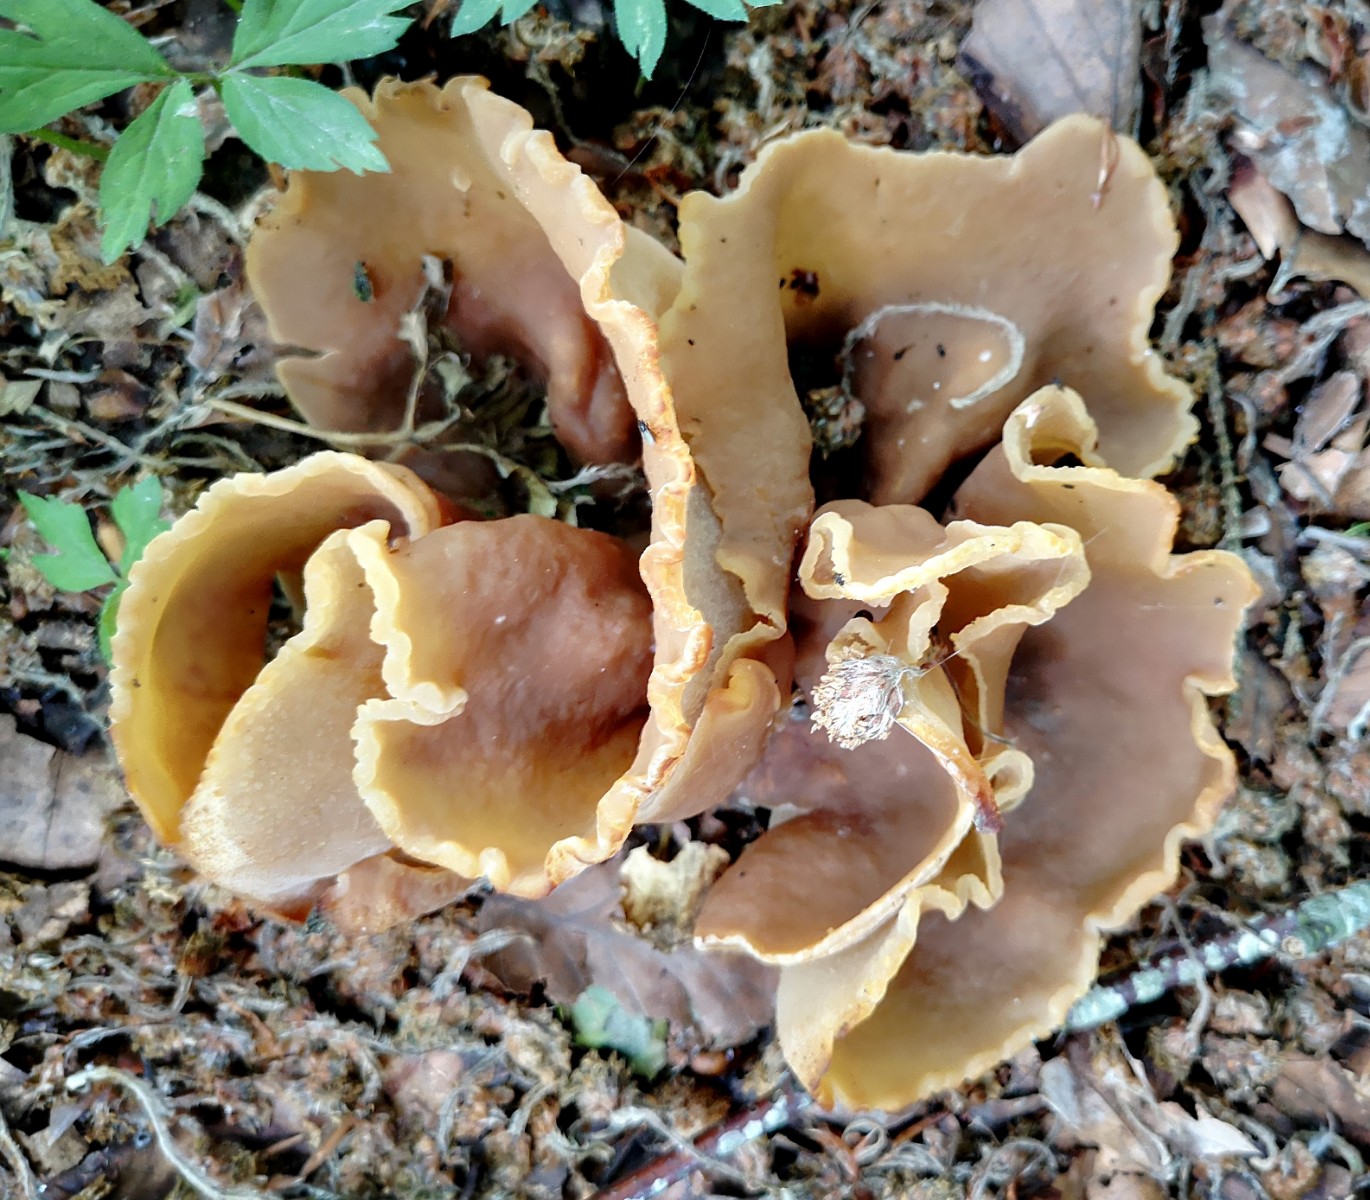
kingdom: Fungi
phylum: Ascomycota
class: Pezizomycetes
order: Pezizales
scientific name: Pezizales
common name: bægersvampordenen
